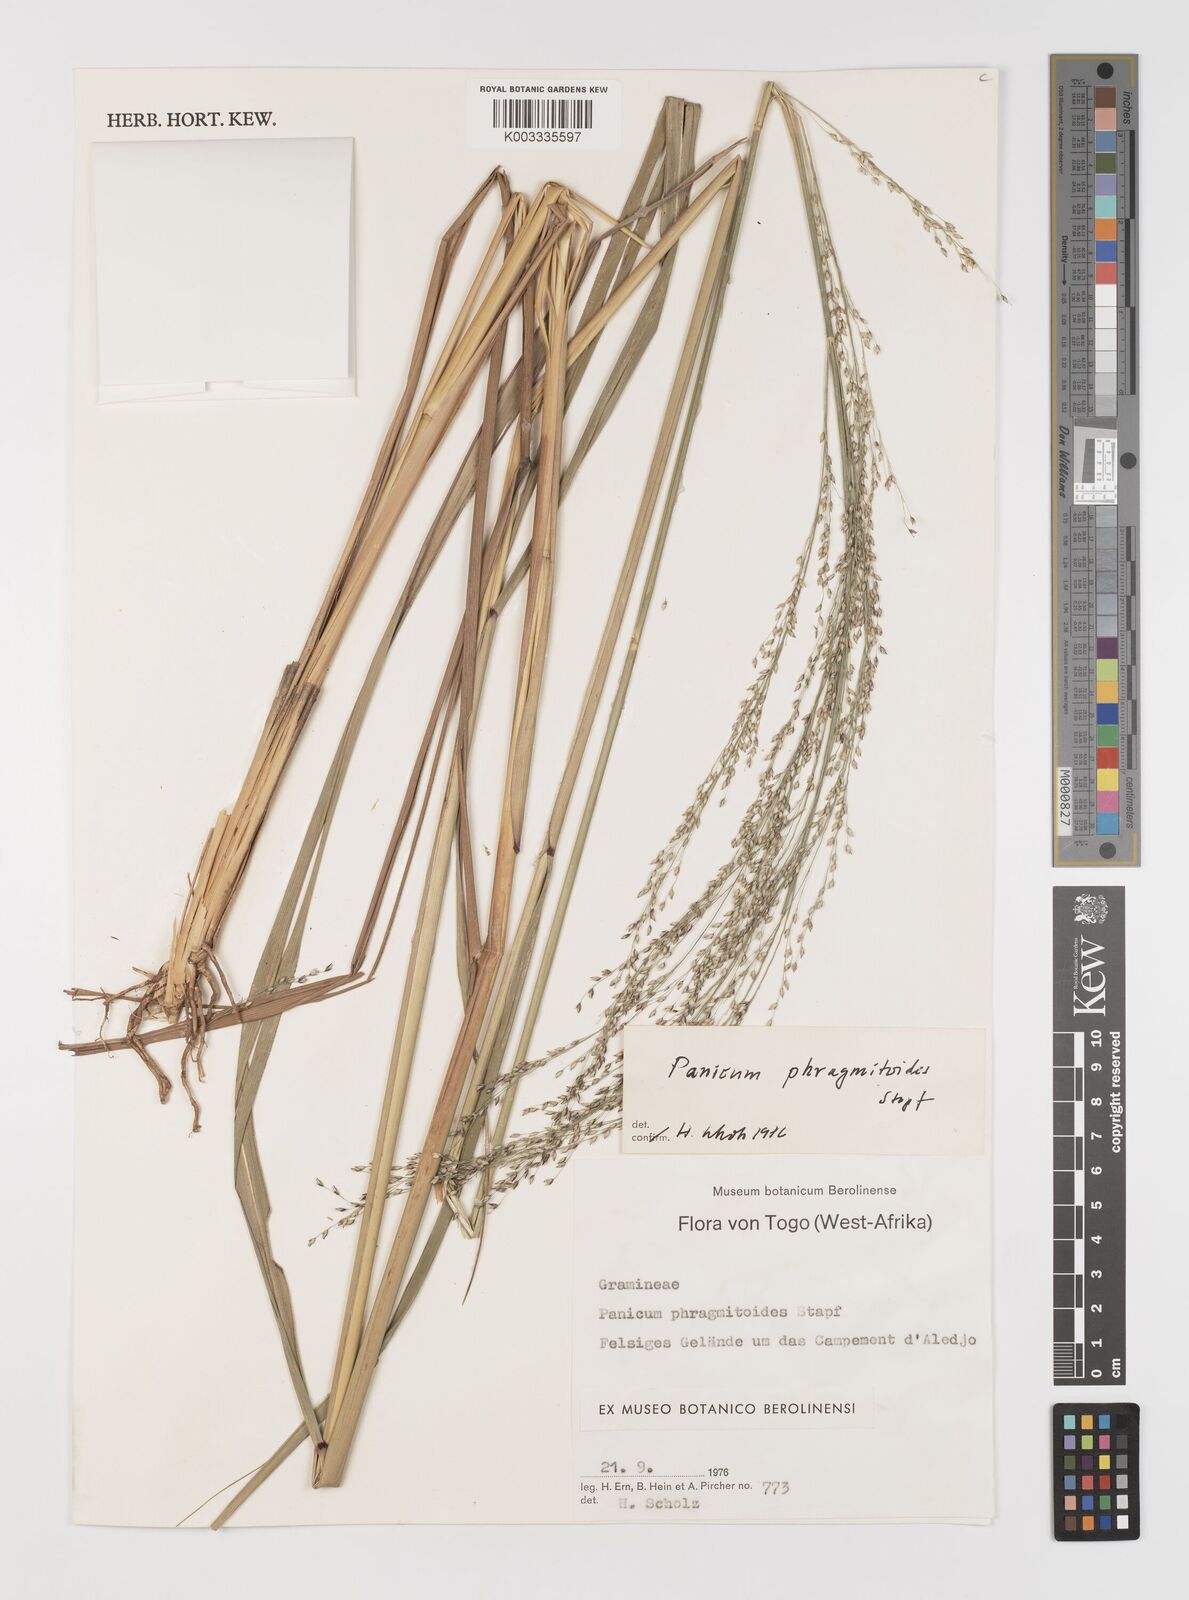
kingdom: Plantae
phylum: Tracheophyta
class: Liliopsida
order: Poales
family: Poaceae
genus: Panicum
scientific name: Panicum phragmitoides
